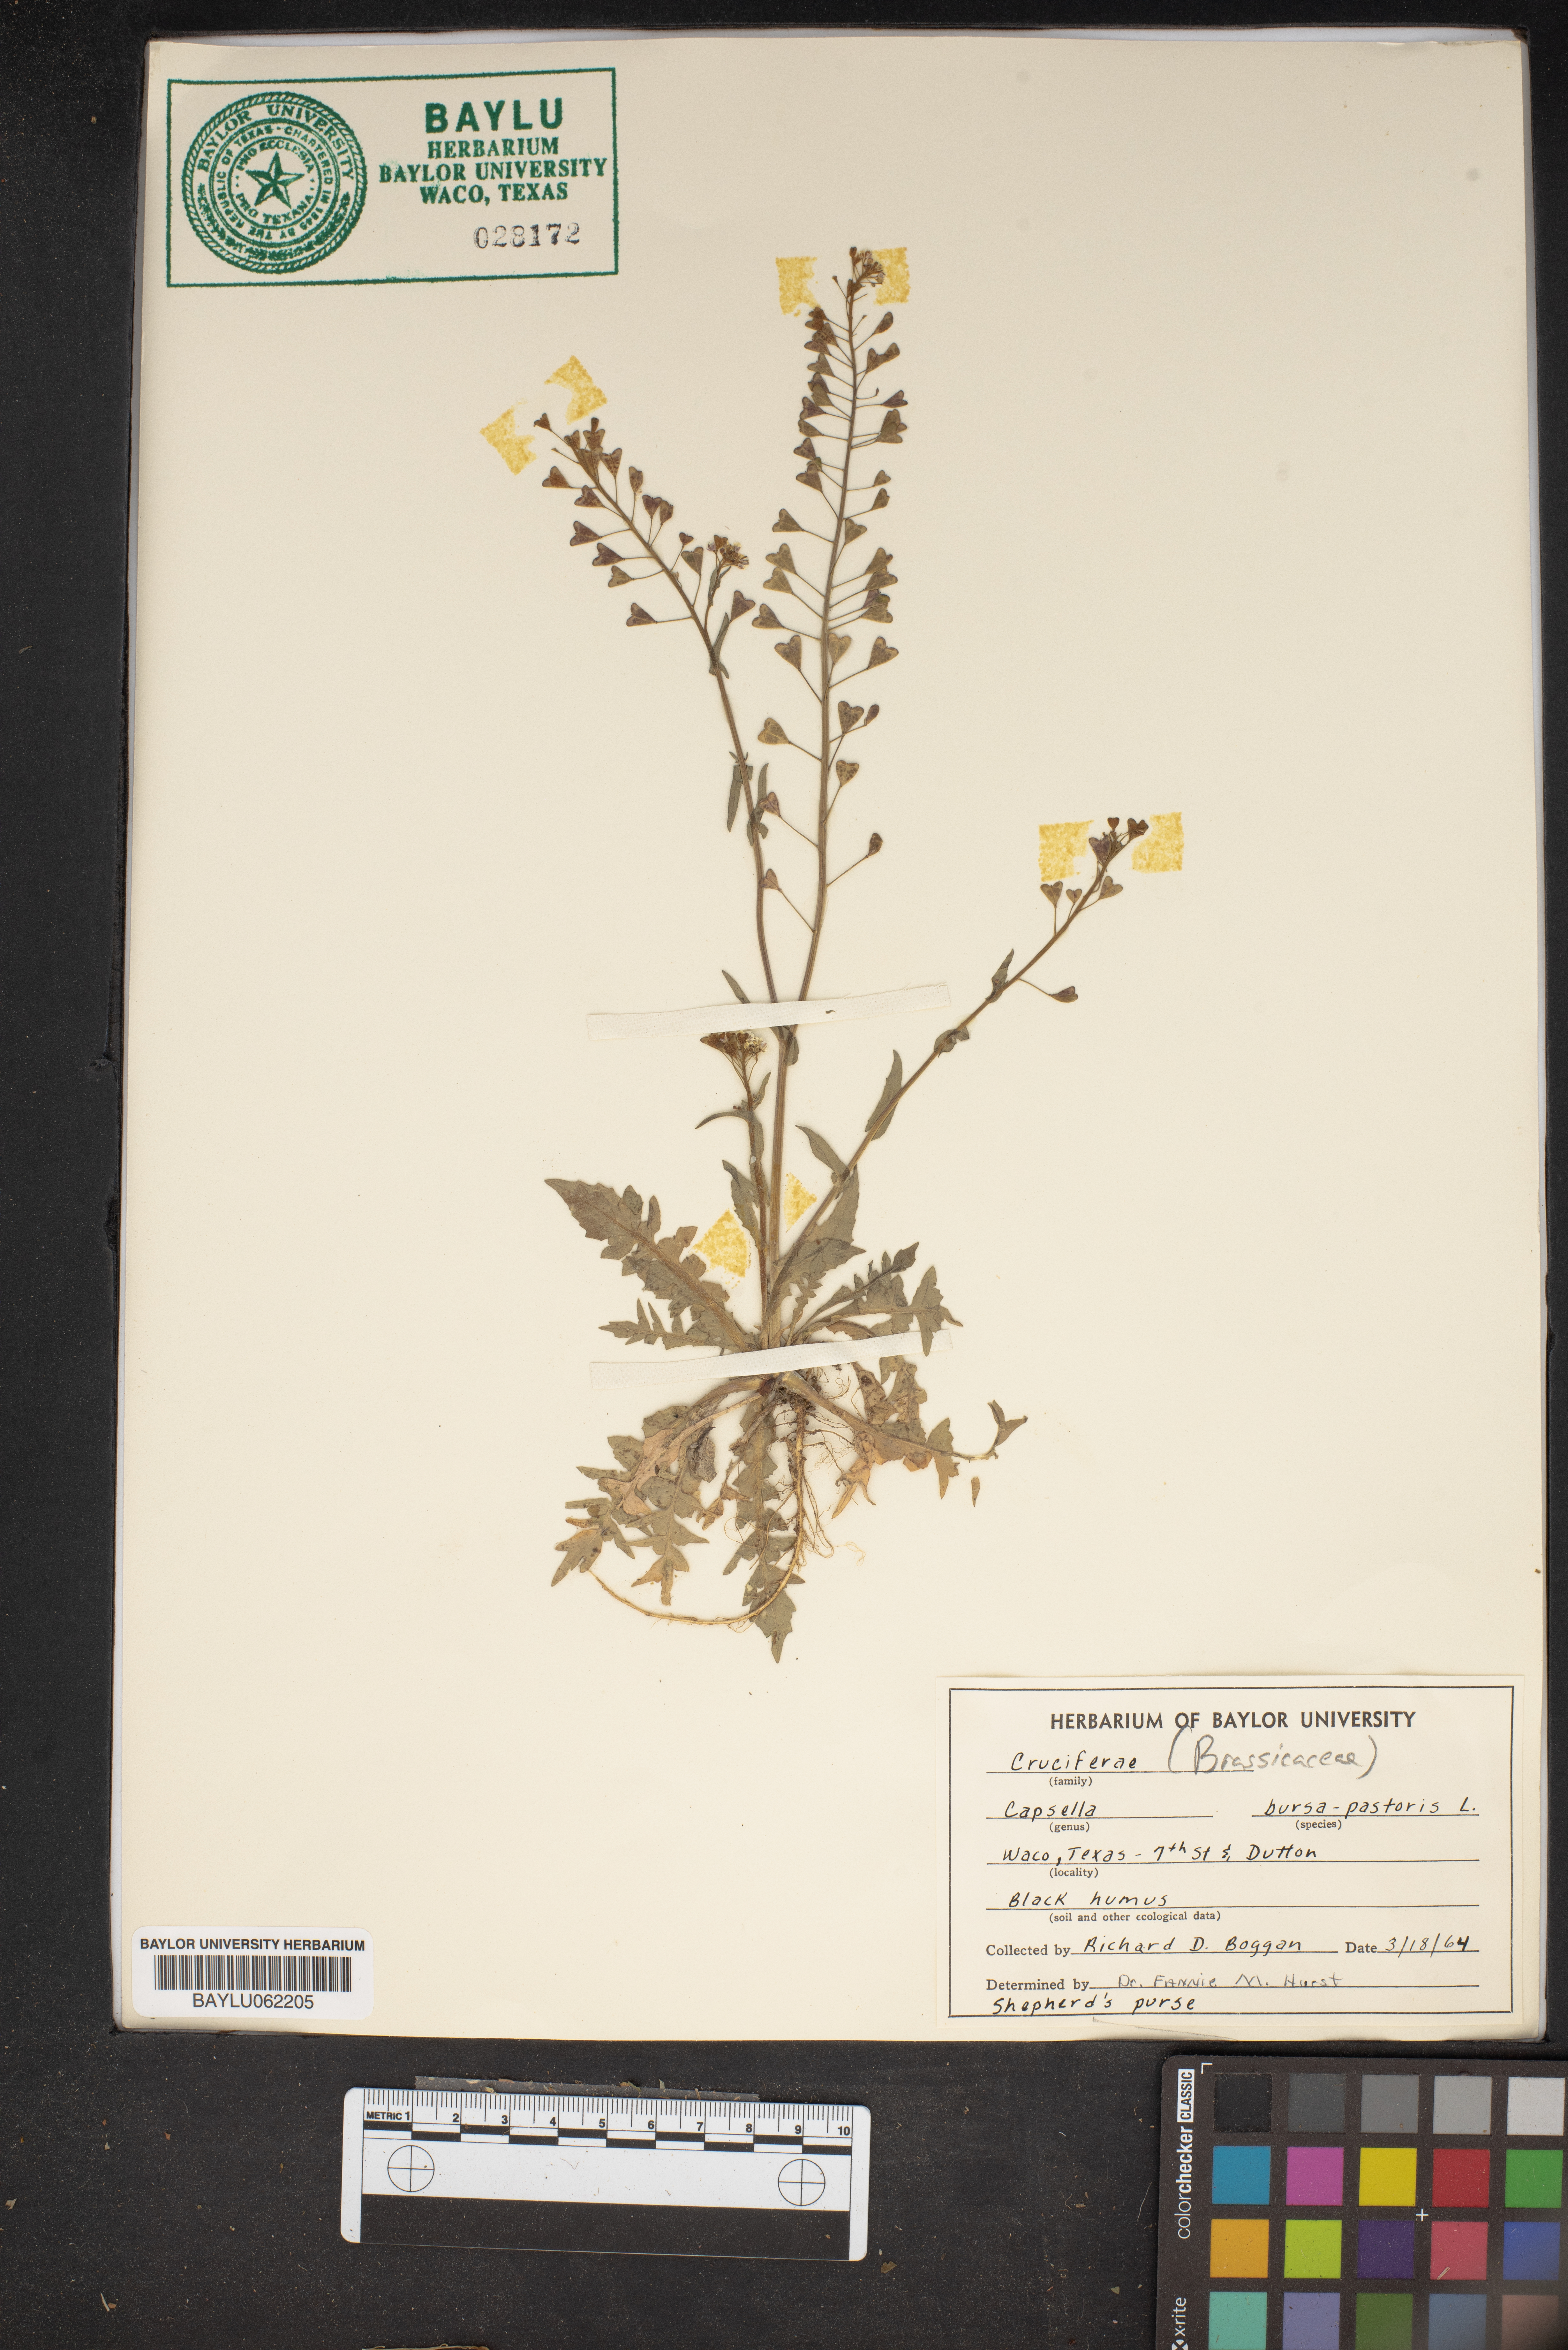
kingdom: Plantae
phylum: Tracheophyta
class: Magnoliopsida
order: Brassicales
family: Brassicaceae
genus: Capsella
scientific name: Capsella bursa-pastoris
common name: Shepherd's purse
